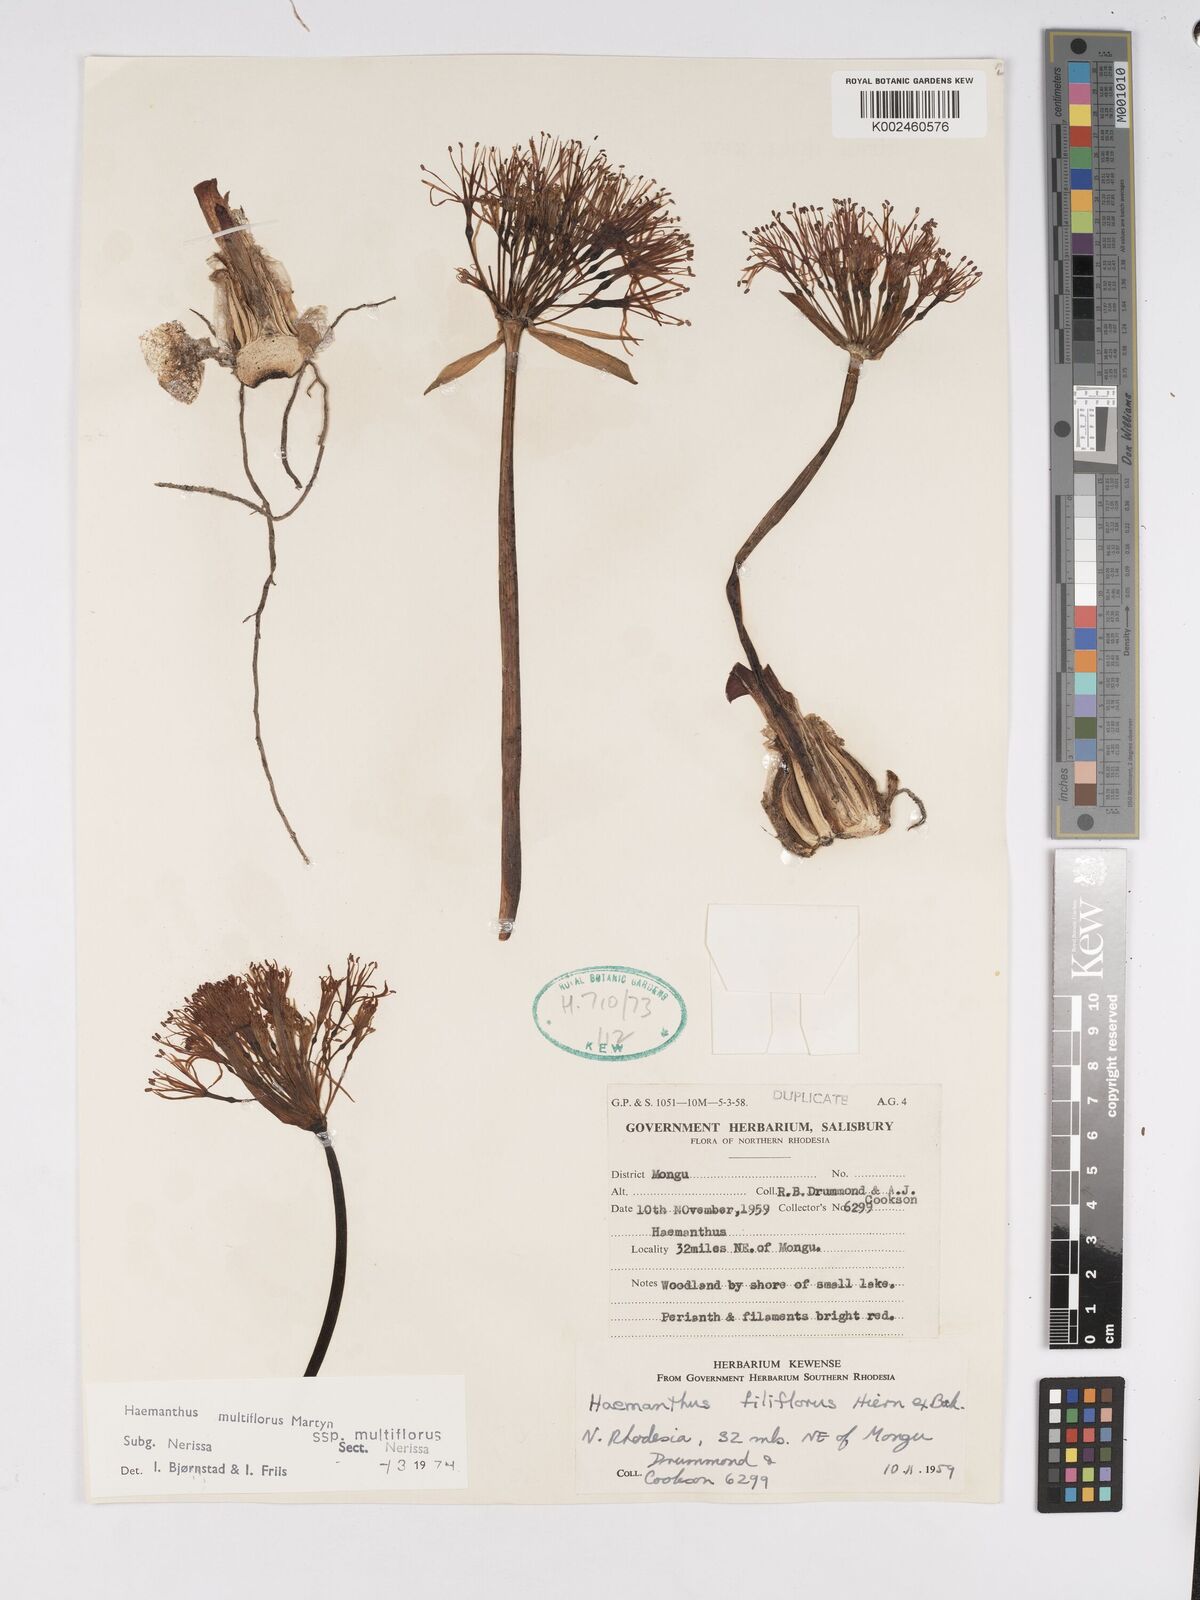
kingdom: Plantae
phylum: Tracheophyta
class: Liliopsida
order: Asparagales
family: Amaryllidaceae
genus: Scadoxus
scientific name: Scadoxus multiflorus
